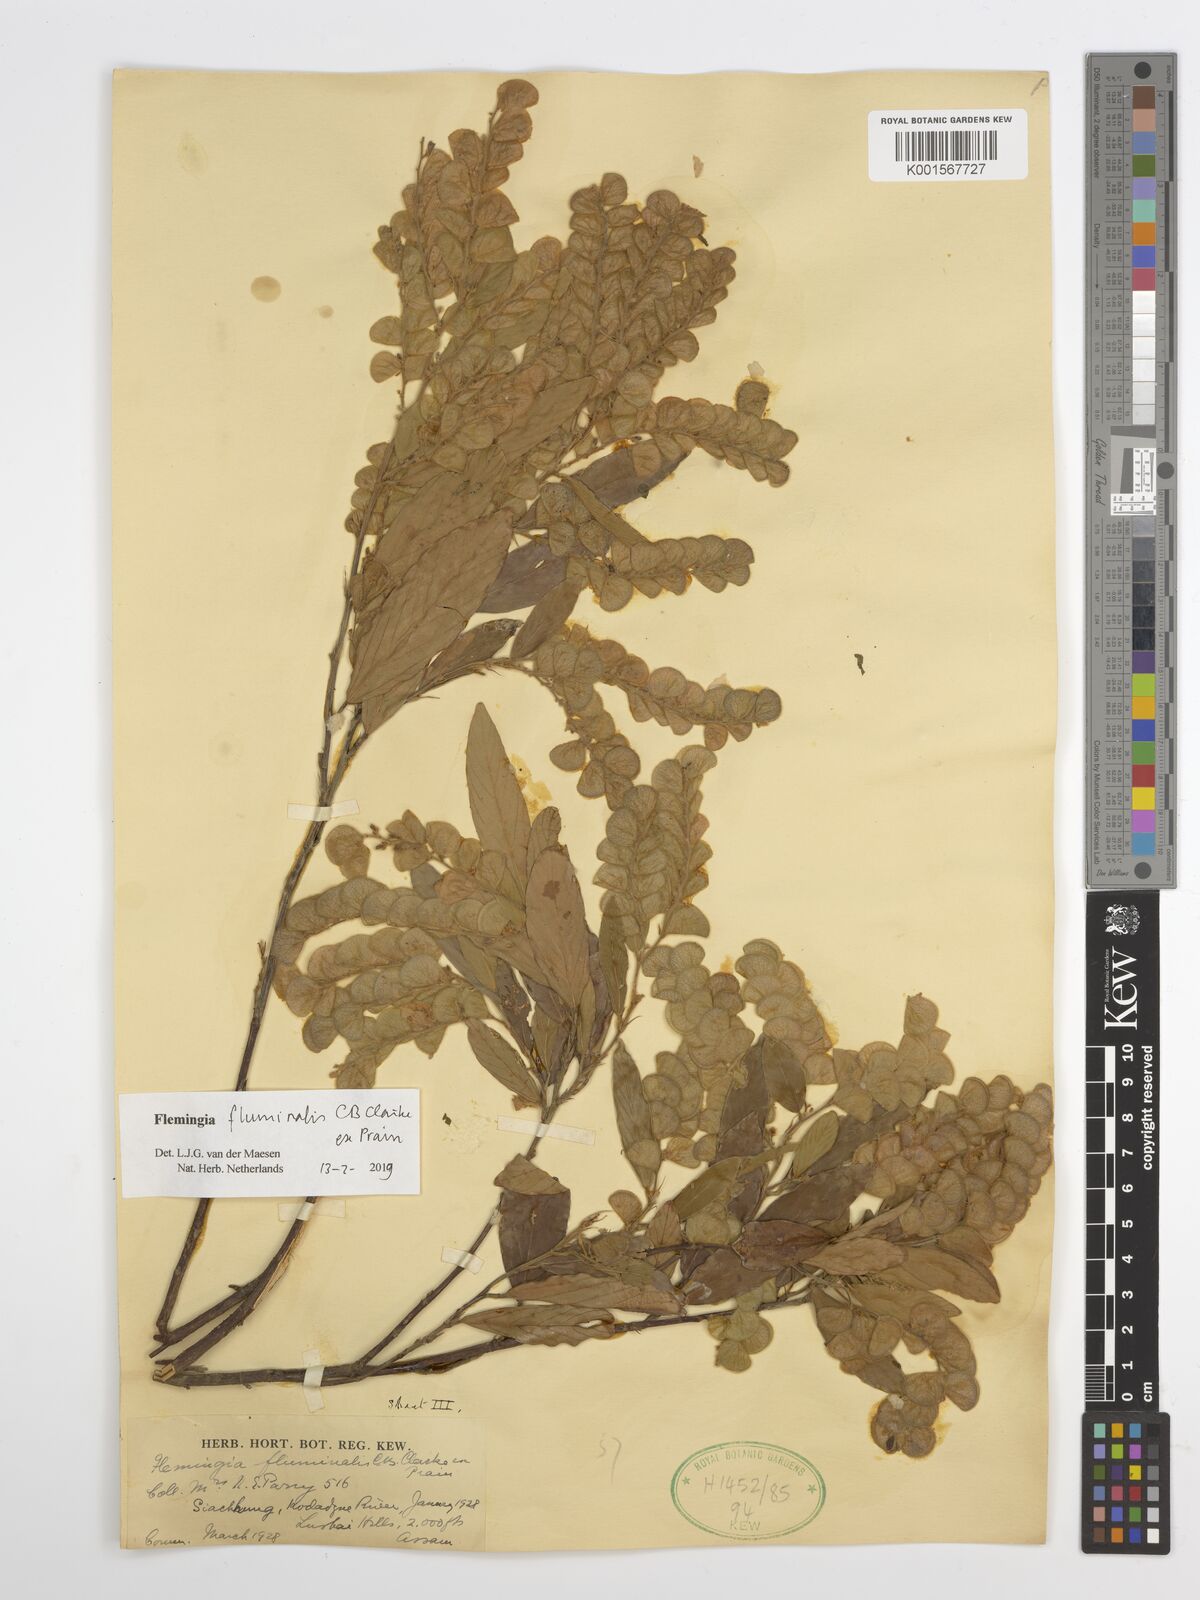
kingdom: Plantae
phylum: Tracheophyta
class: Magnoliopsida
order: Fabales
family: Fabaceae
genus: Flemingia
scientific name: Flemingia fluminalis
